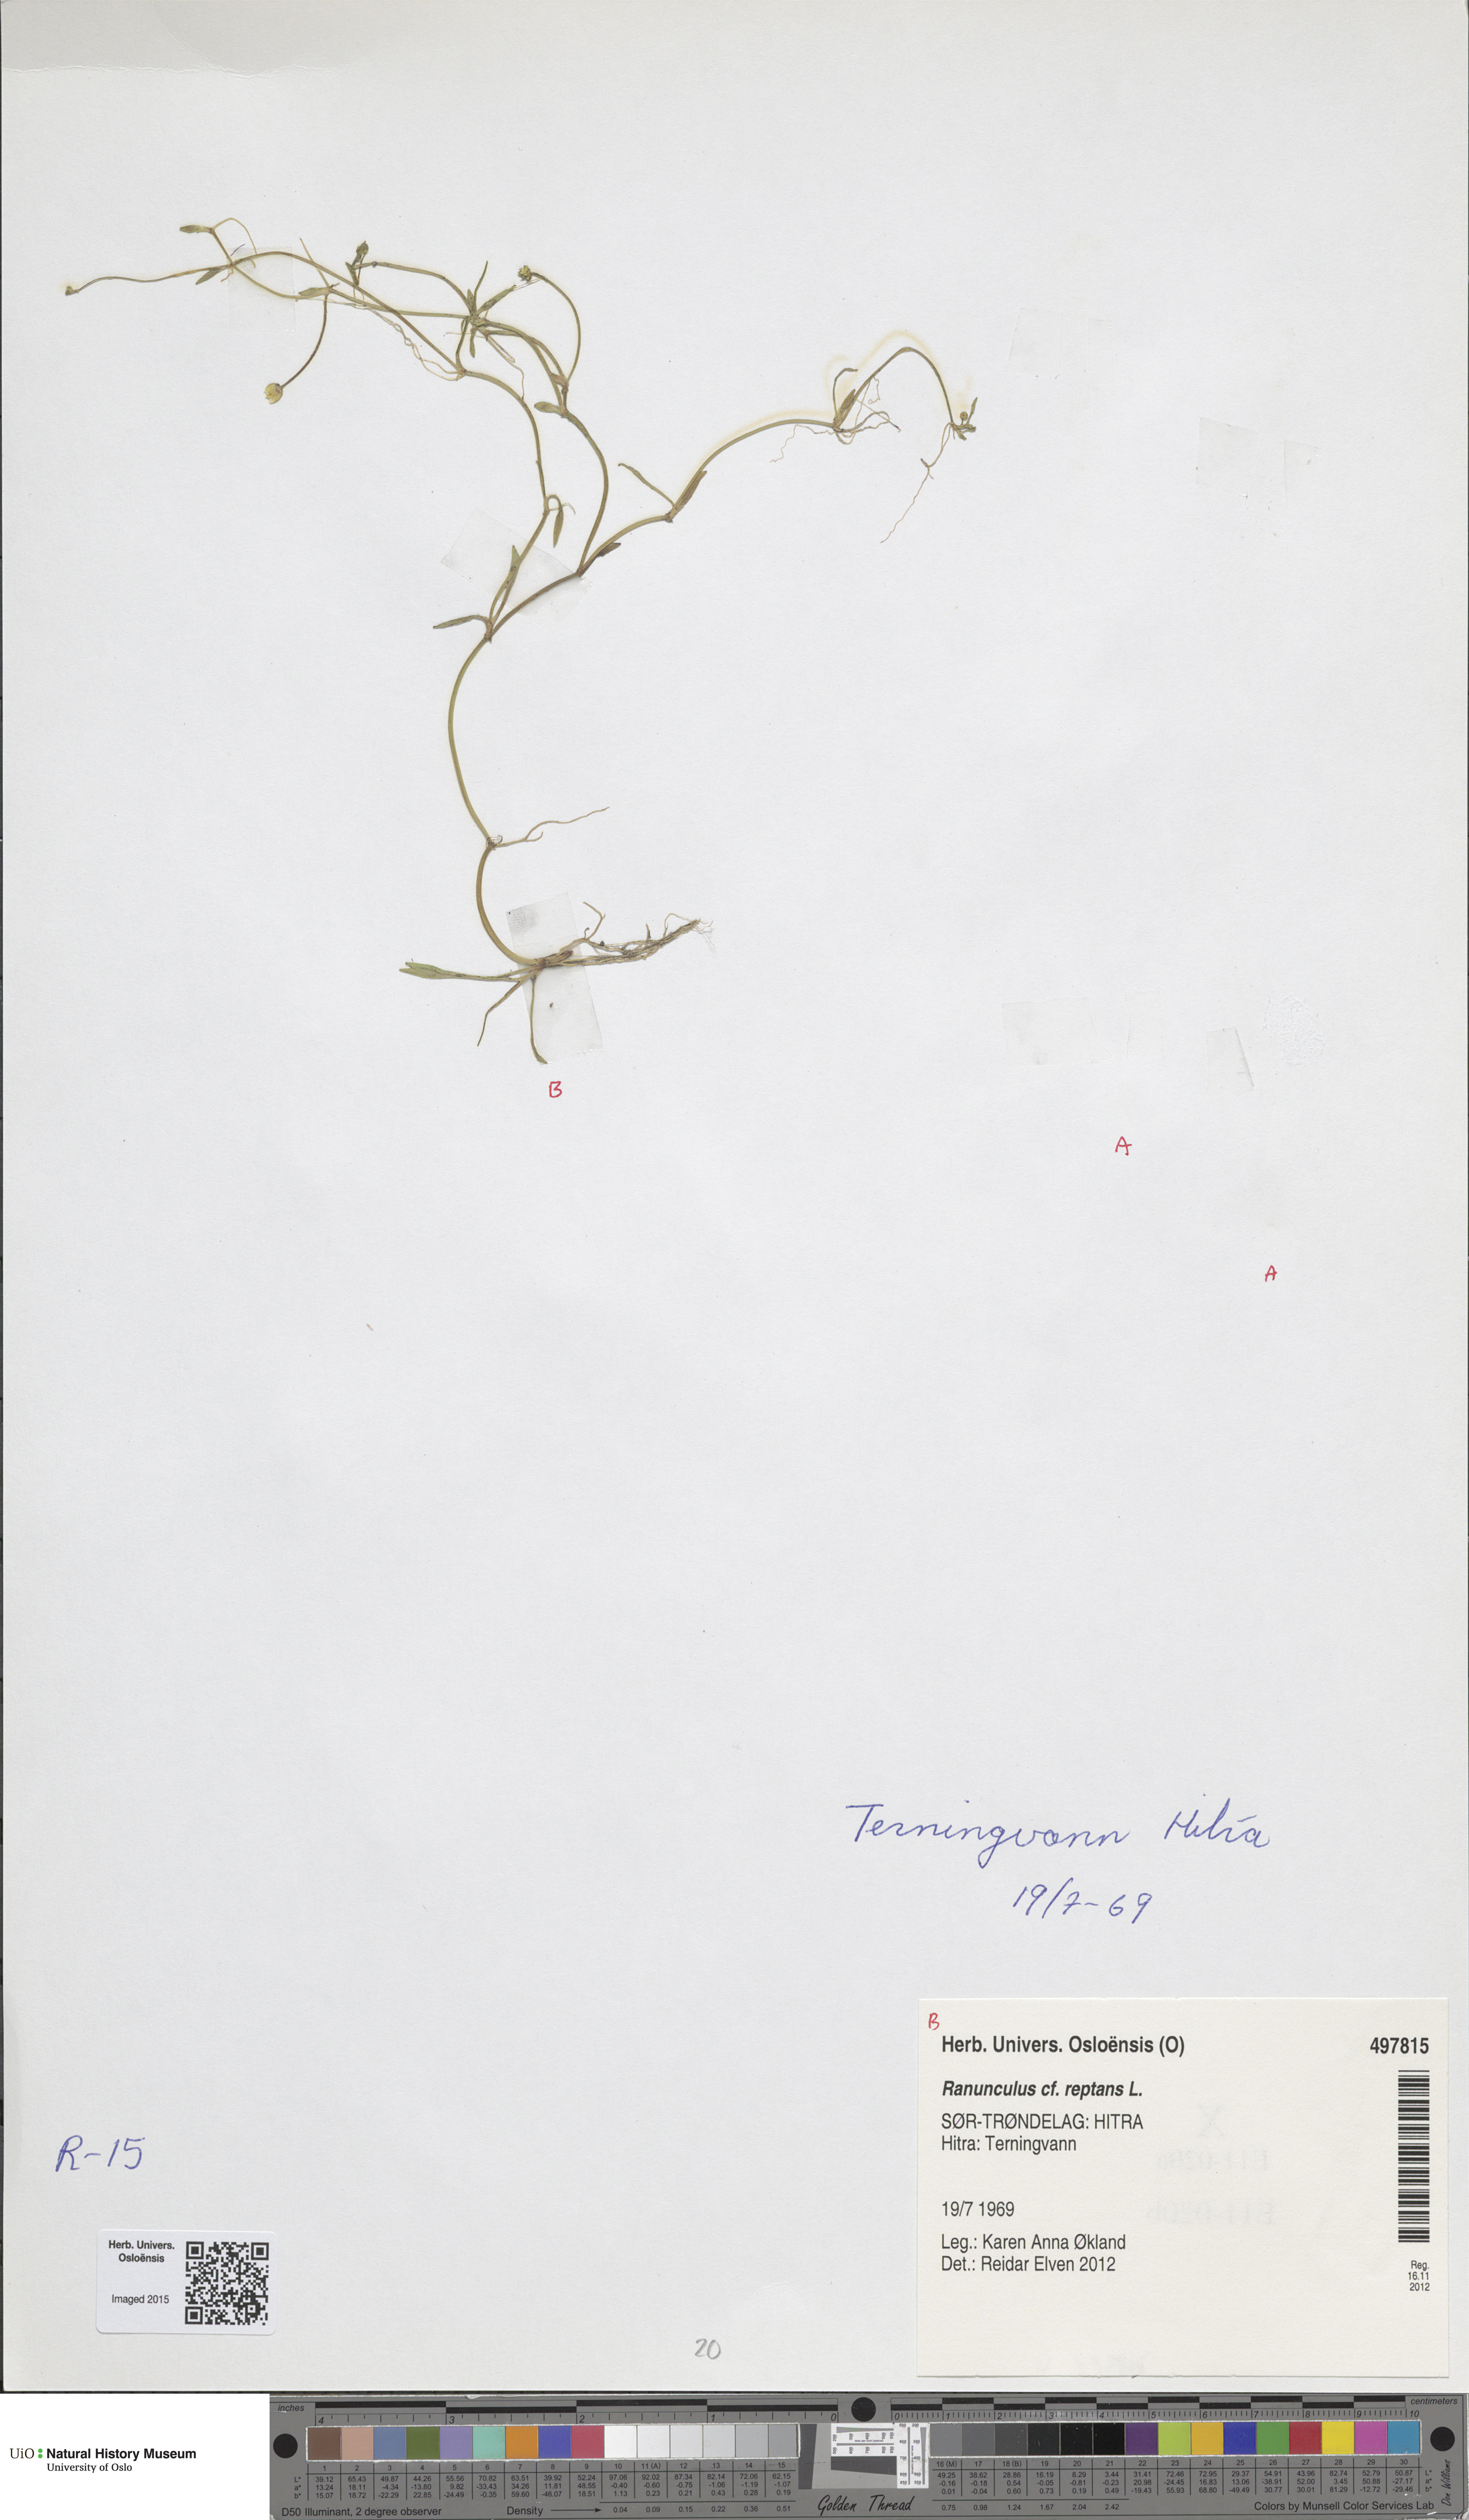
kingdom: Plantae
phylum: Tracheophyta
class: Magnoliopsida
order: Ranunculales
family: Ranunculaceae
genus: Ranunculus
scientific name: Ranunculus reptans
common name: Creeping spearwort
